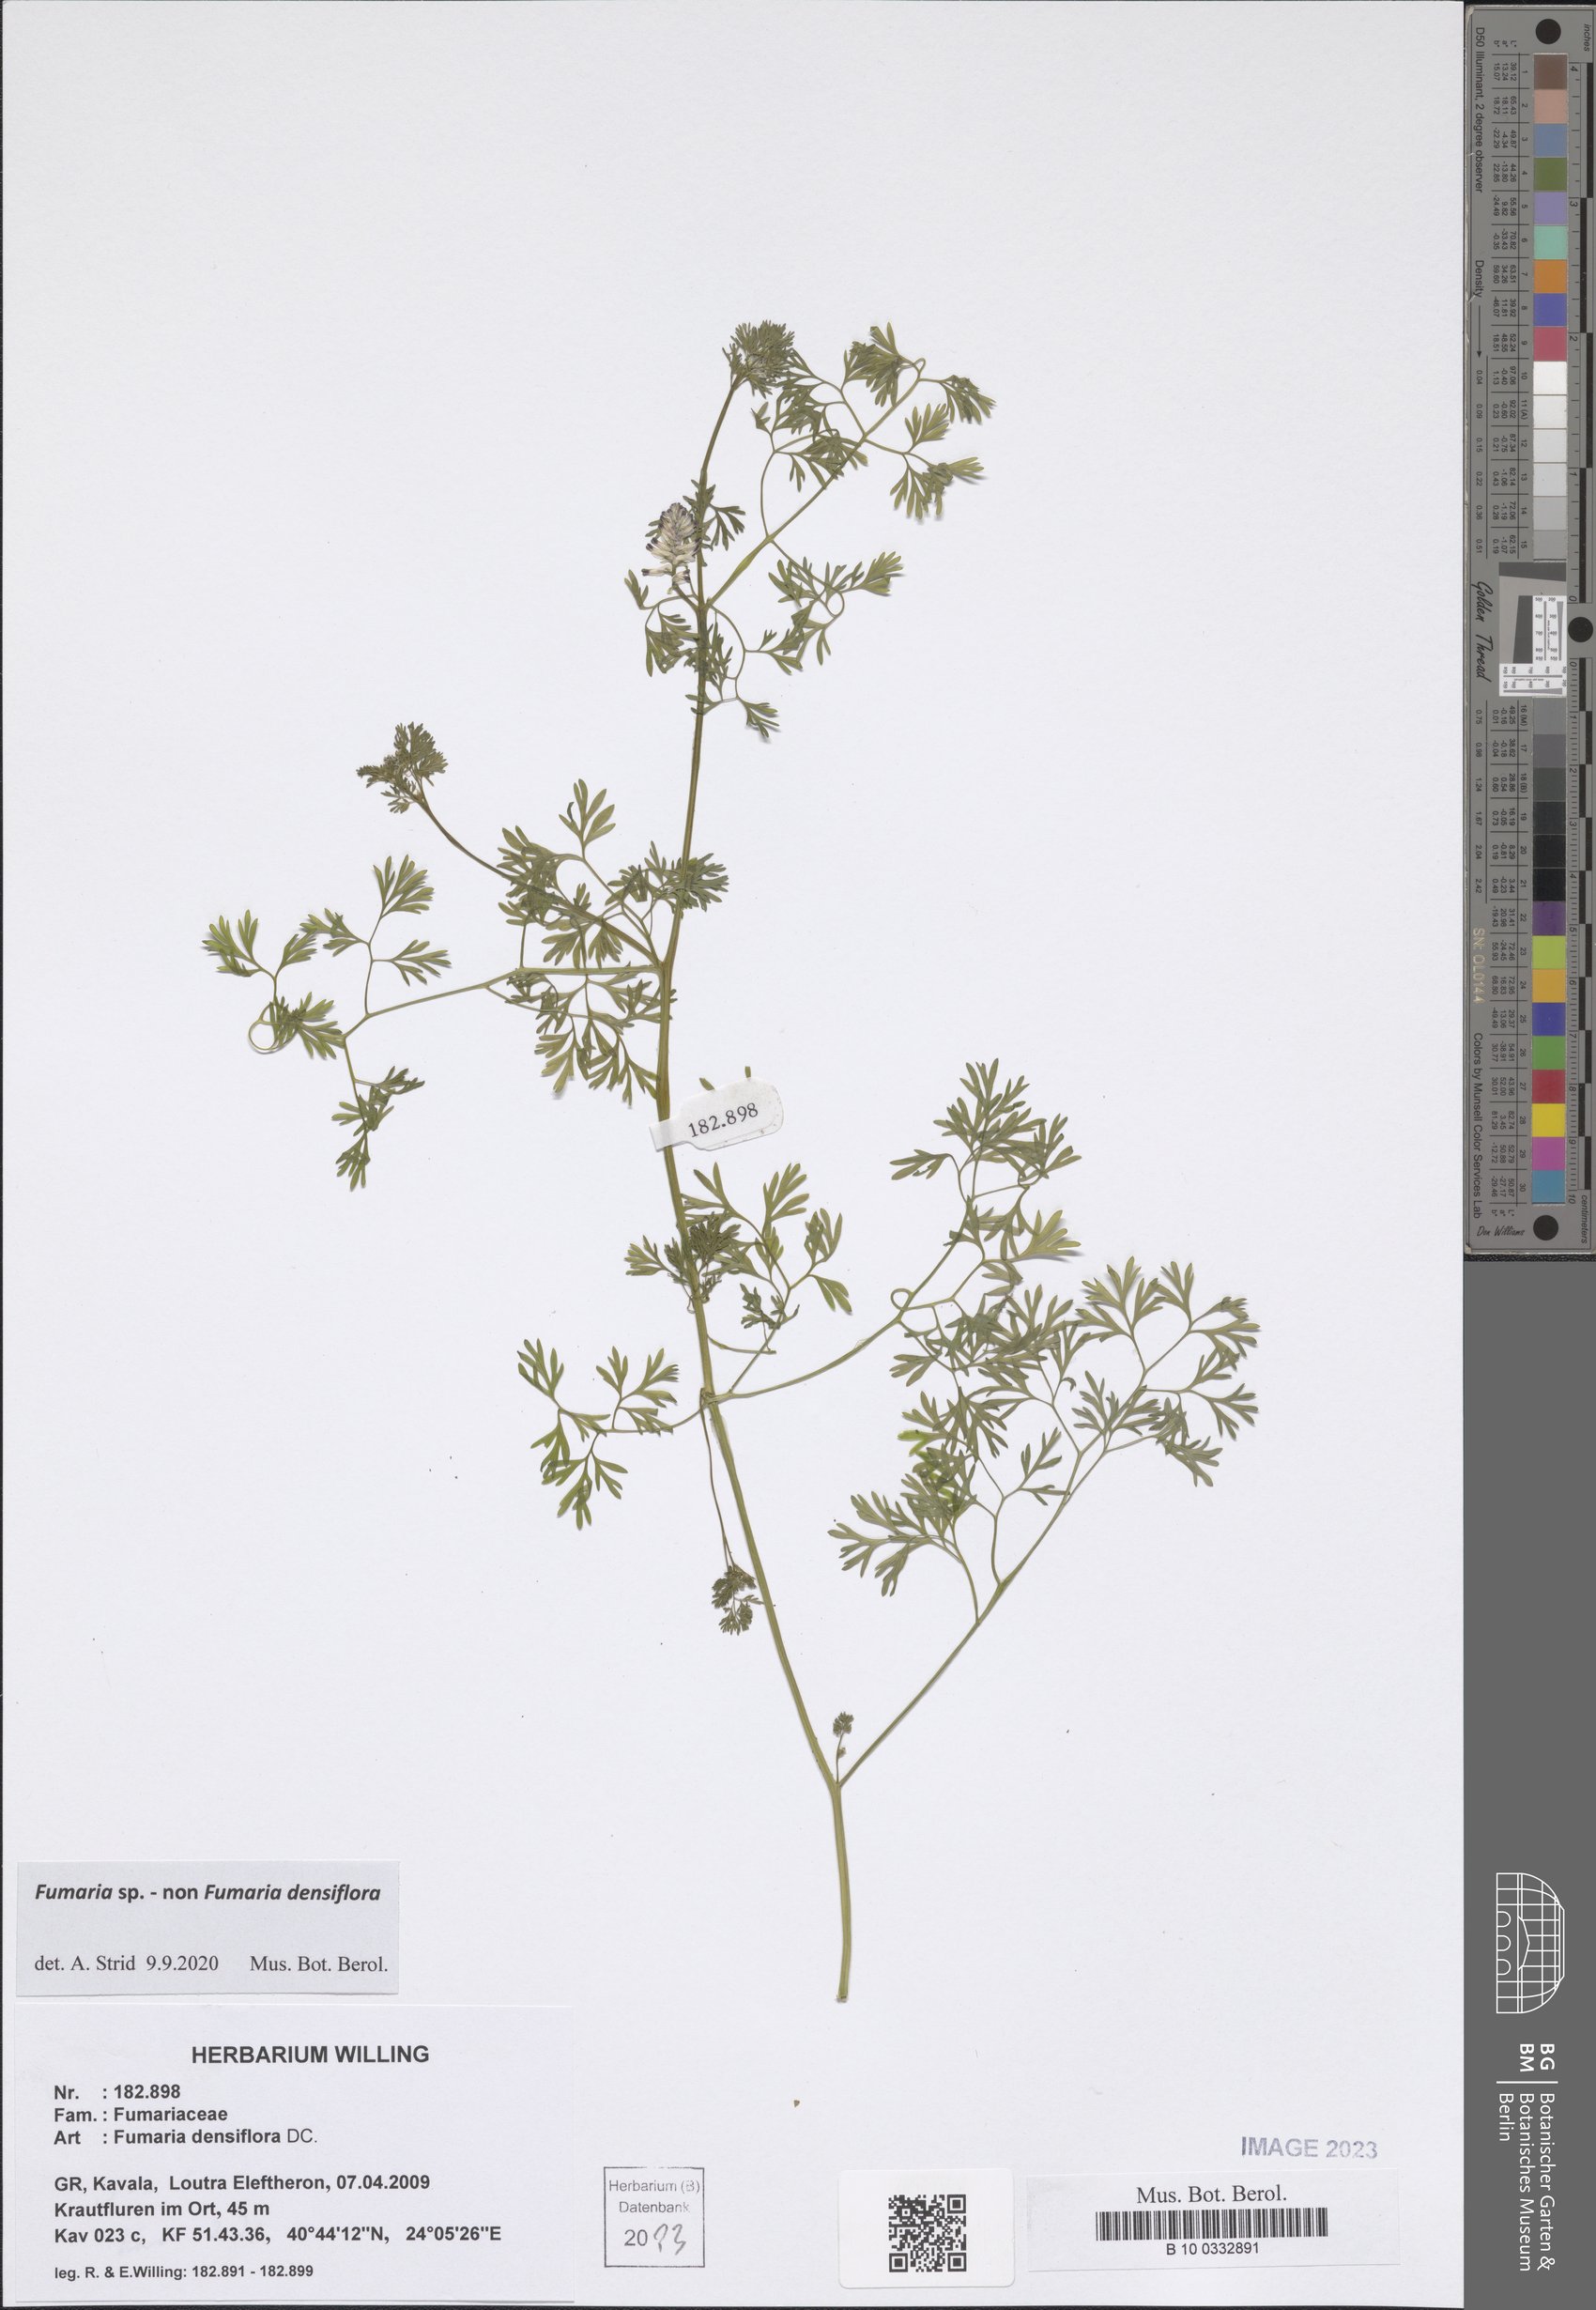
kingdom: Plantae
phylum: Tracheophyta
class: Magnoliopsida
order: Ranunculales
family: Papaveraceae
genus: Fumaria
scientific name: Fumaria
